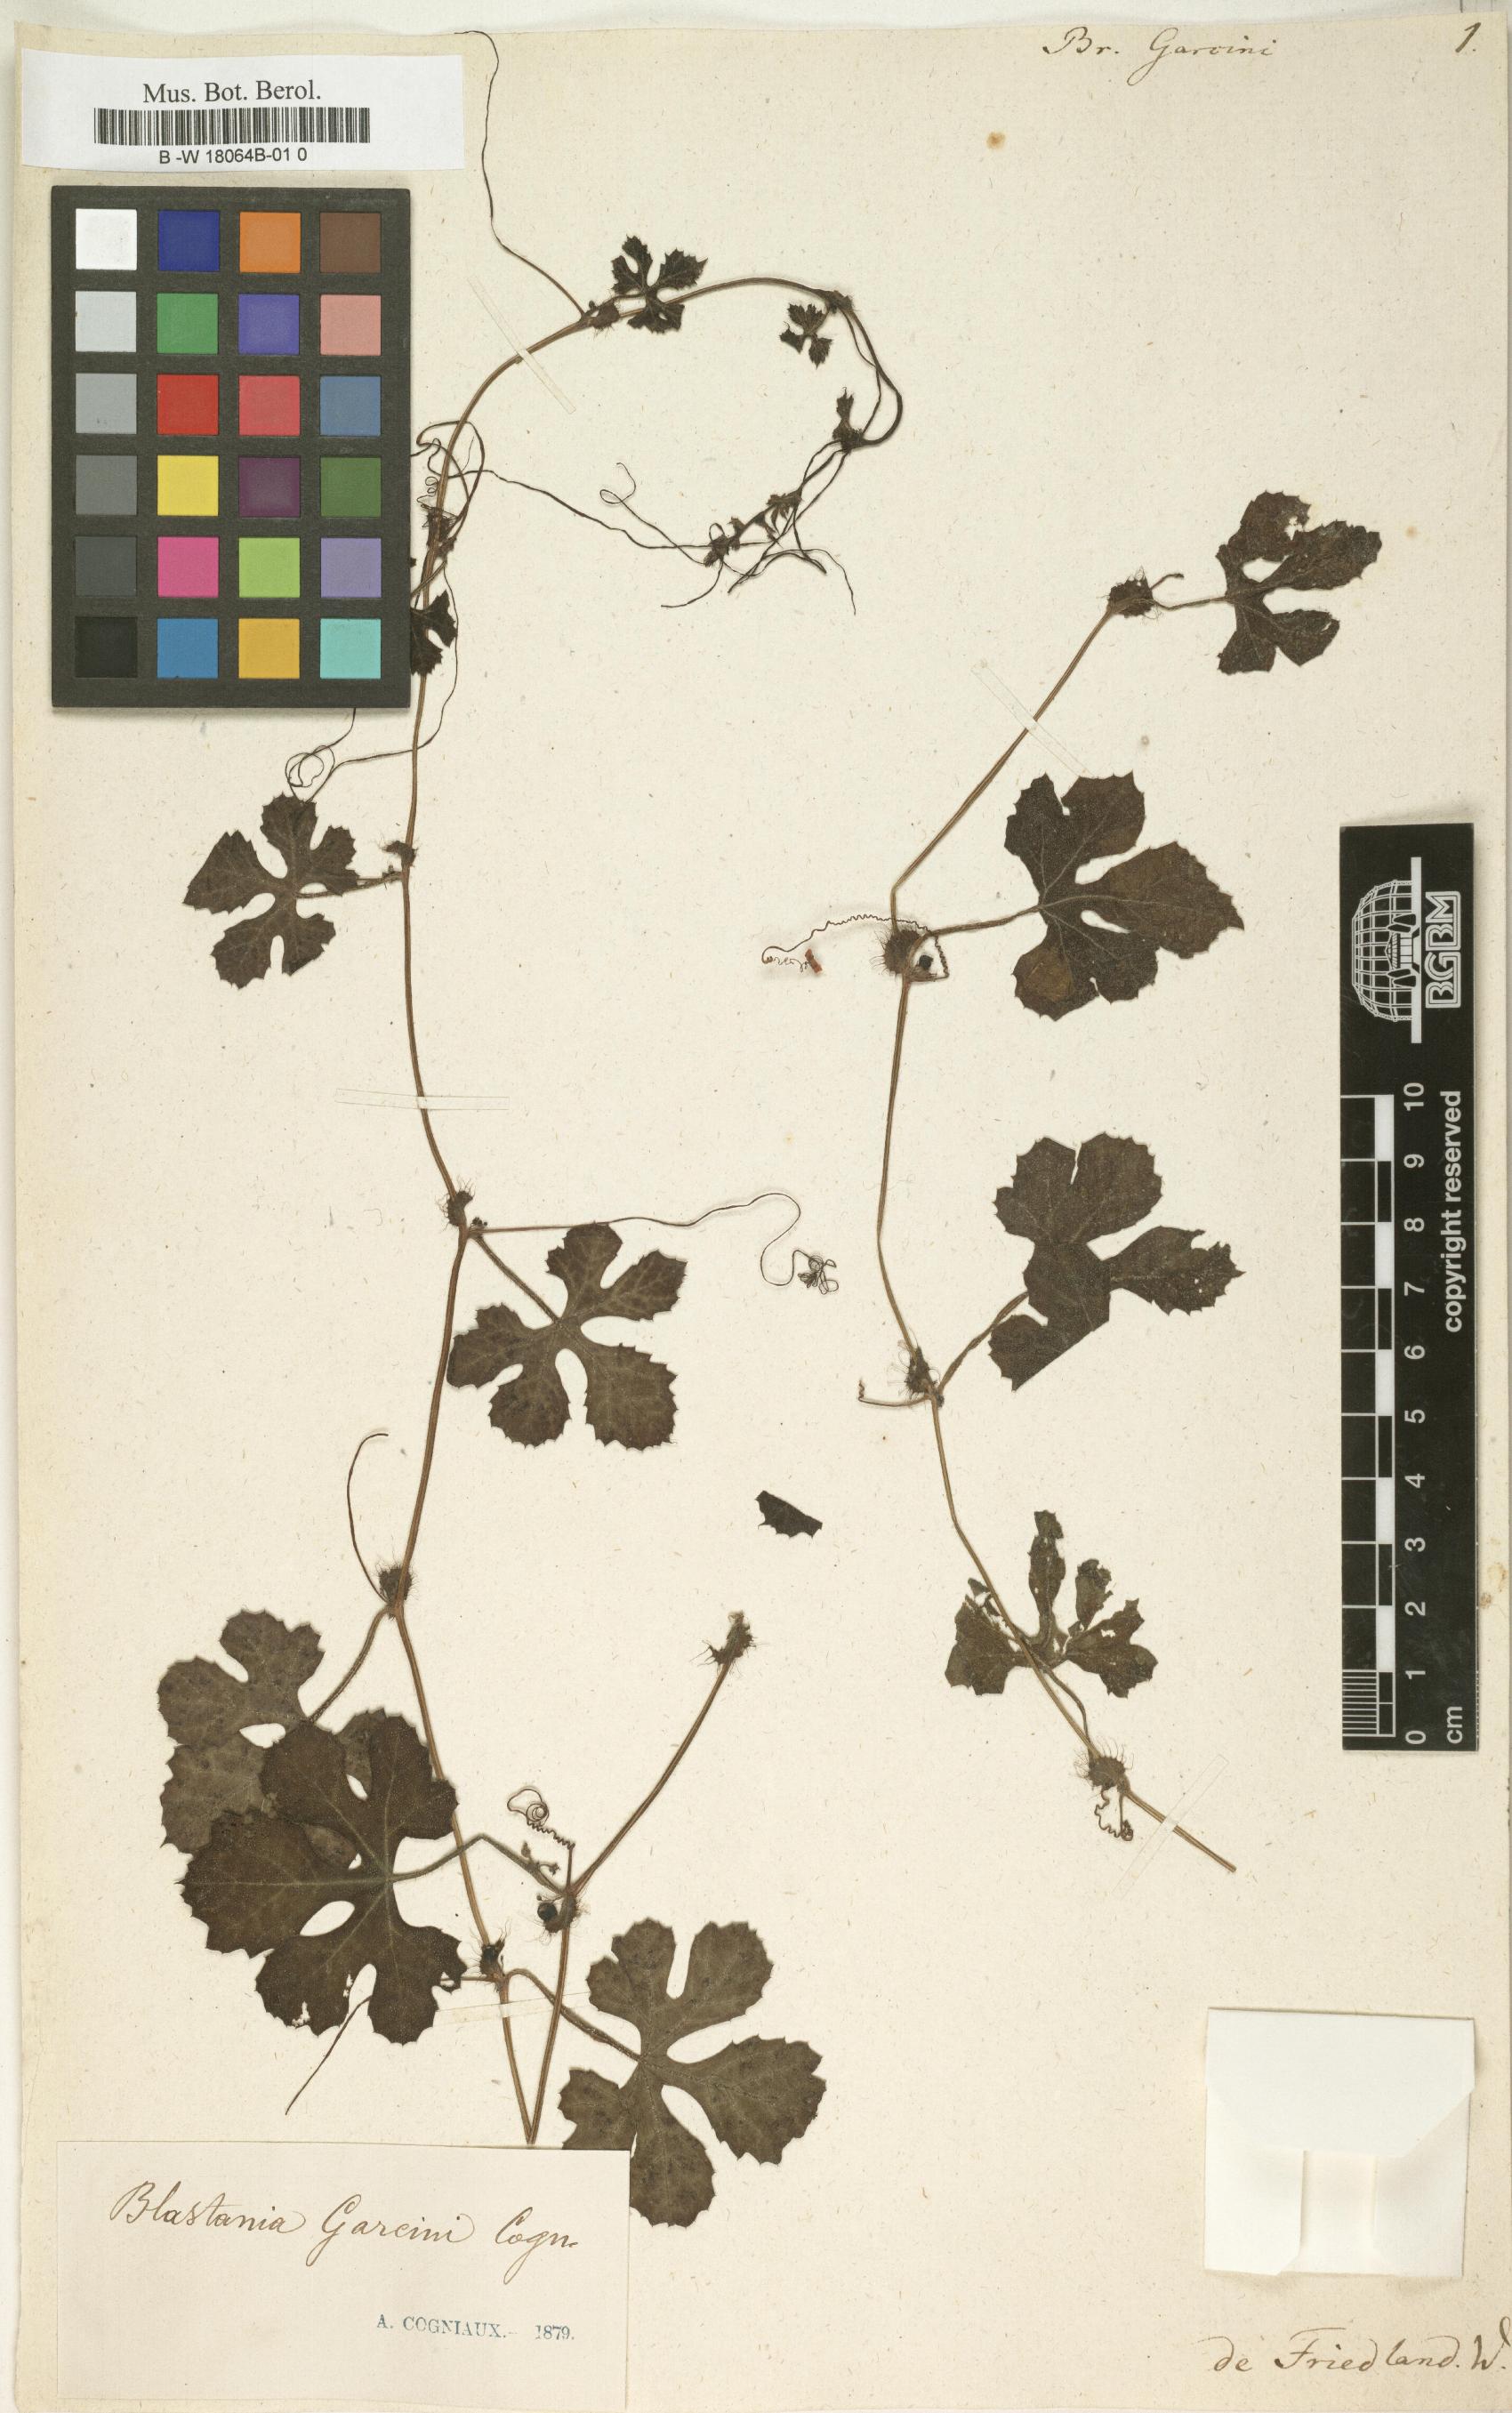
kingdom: Plantae
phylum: Tracheophyta
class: Magnoliopsida
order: Cucurbitales
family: Cucurbitaceae
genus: Blastania
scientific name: Blastania garcinii
